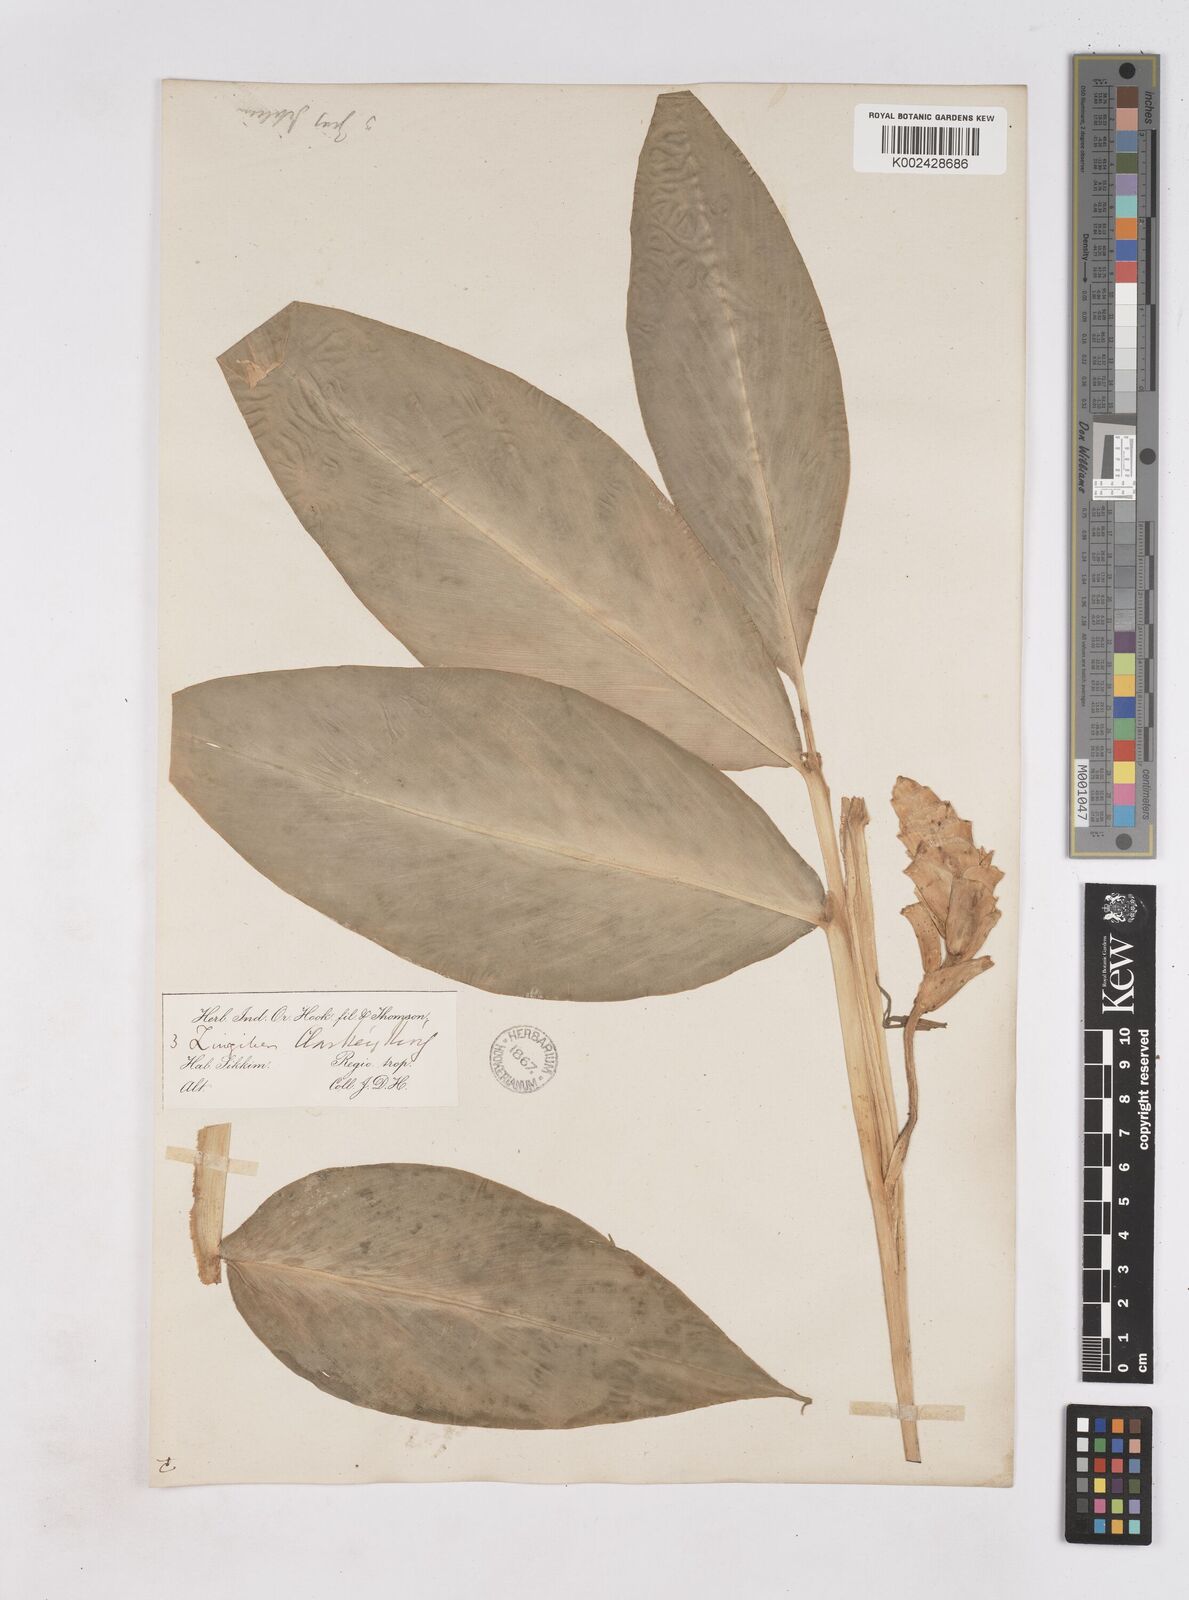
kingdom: Plantae
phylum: Tracheophyta
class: Liliopsida
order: Zingiberales
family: Zingiberaceae
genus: Zingiber
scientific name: Zingiber clarkei
